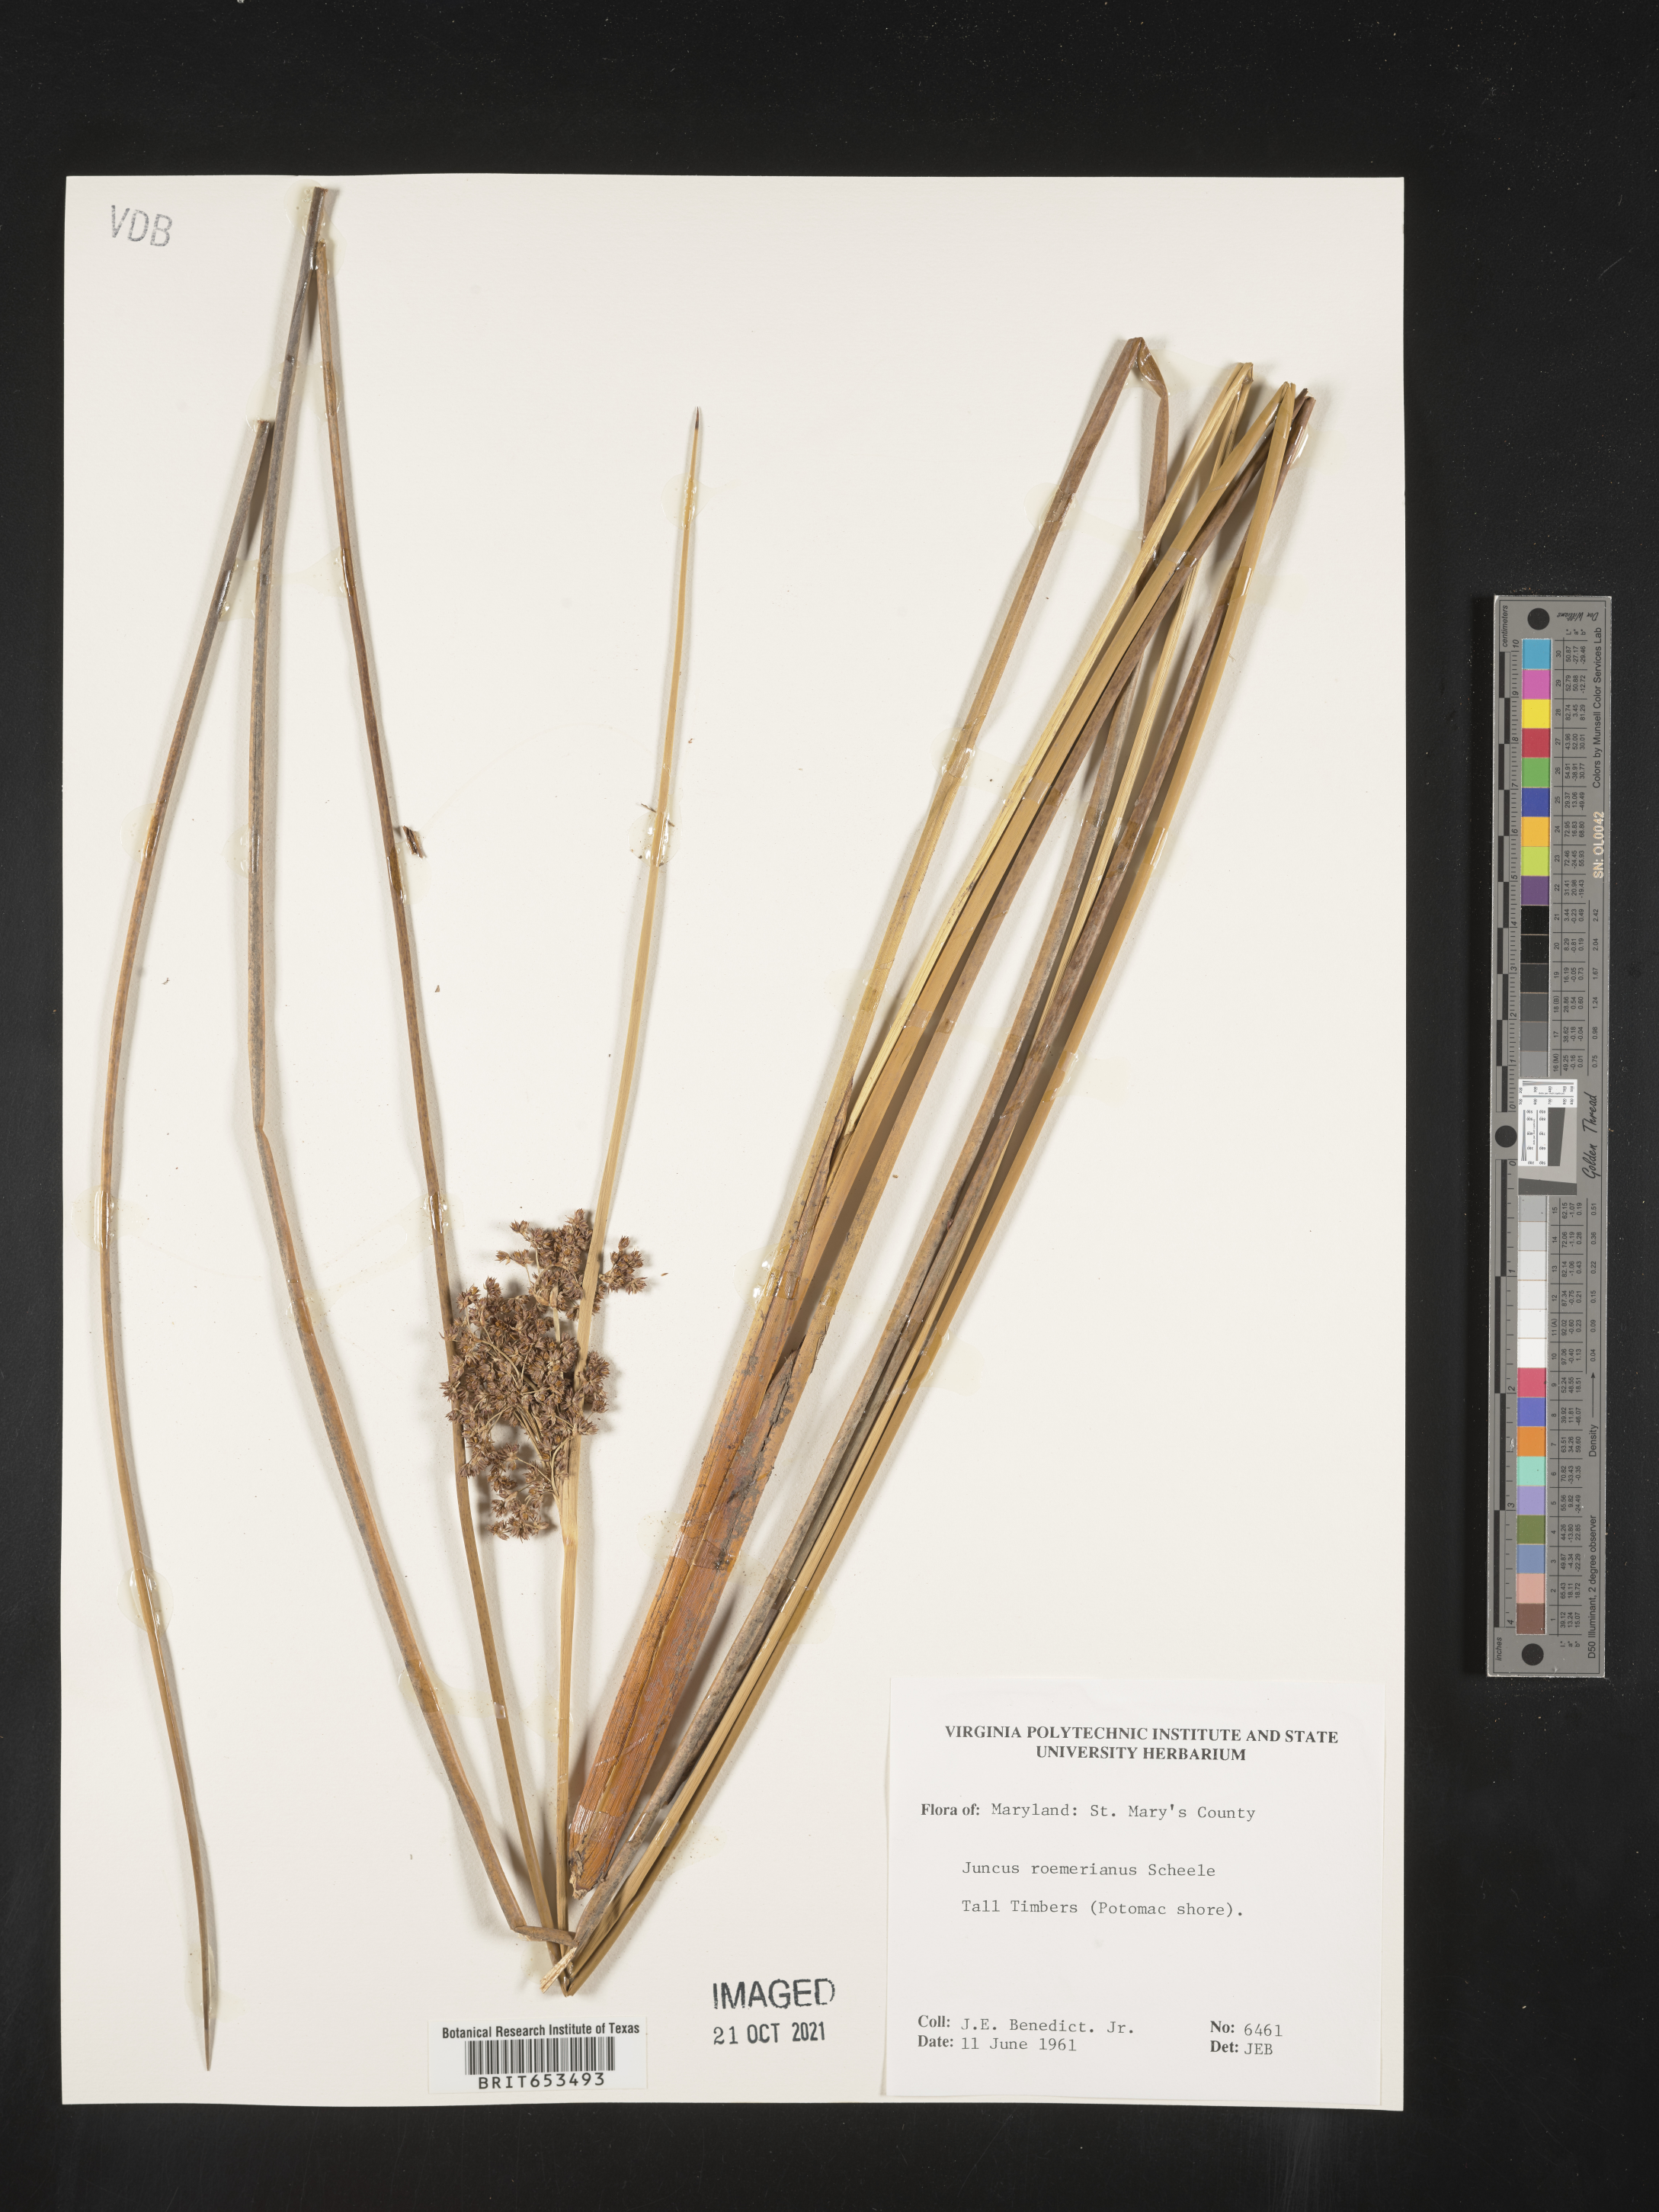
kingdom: Plantae
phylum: Tracheophyta
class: Liliopsida
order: Poales
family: Juncaceae
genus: Juncus
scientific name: Juncus roemerianus
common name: Roemer's rush
